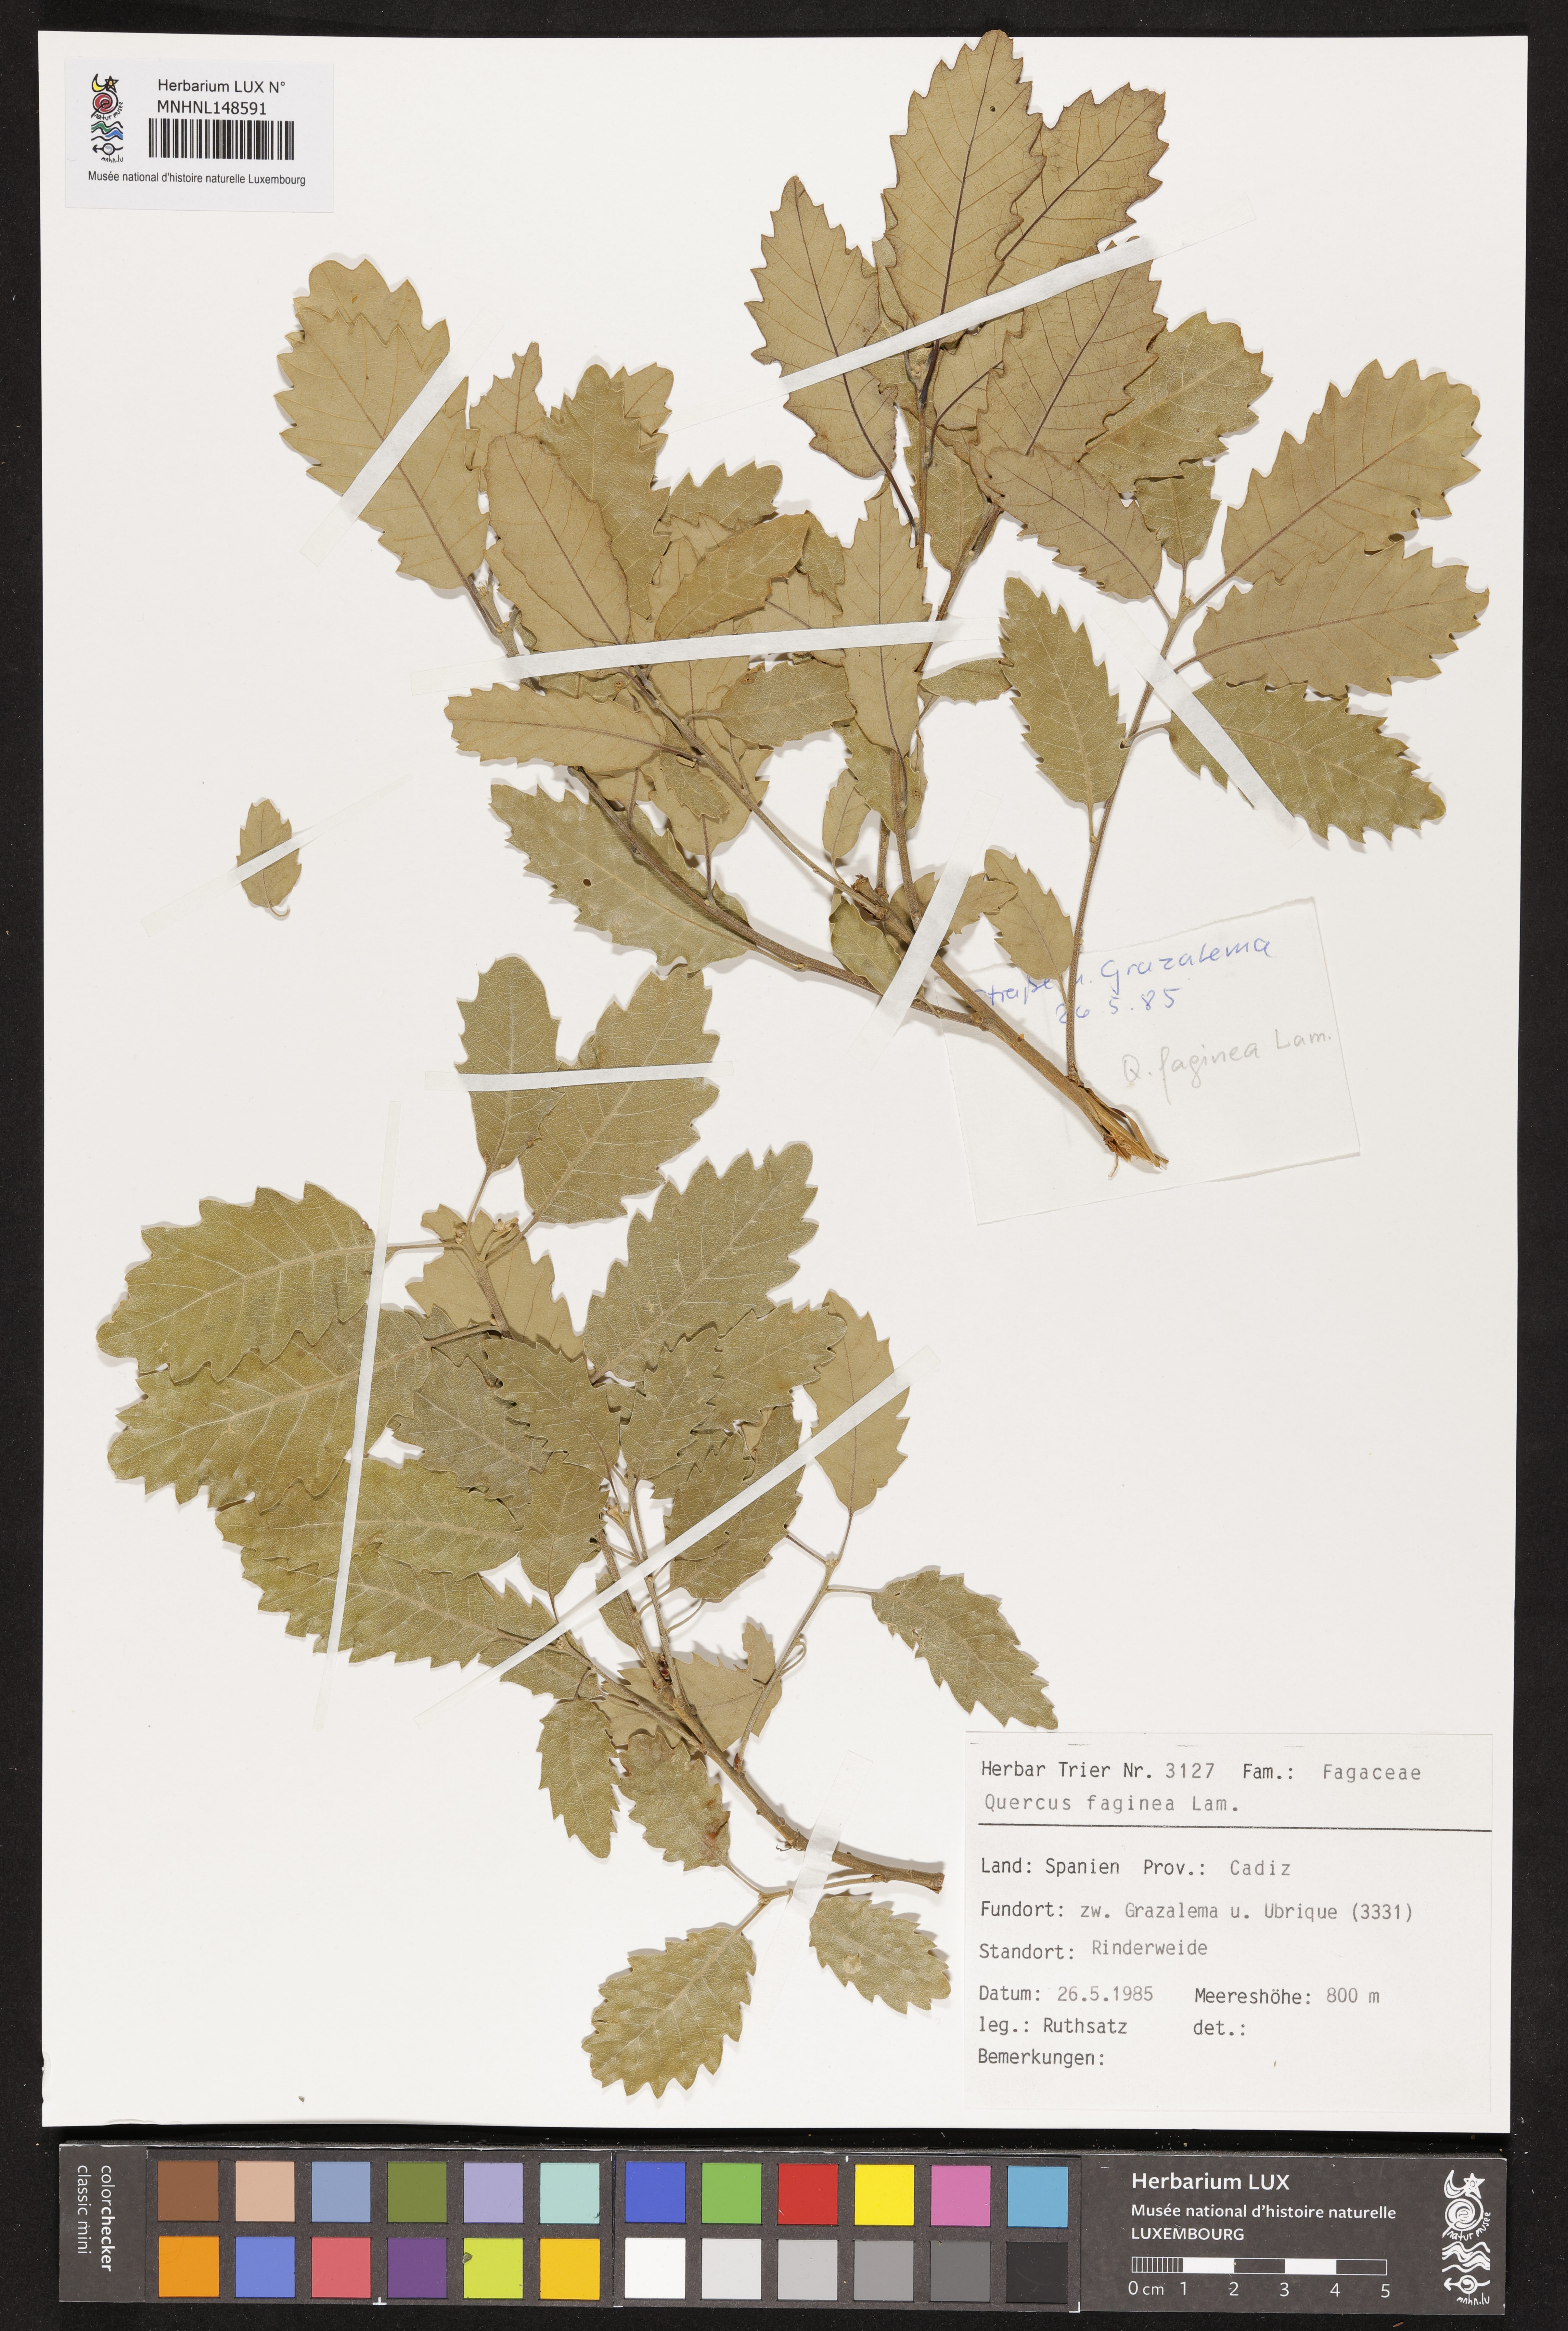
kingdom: Plantae
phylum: Tracheophyta
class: Magnoliopsida
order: Fagales
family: Fagaceae
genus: Quercus
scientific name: Quercus faginea
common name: Gall oak tree
